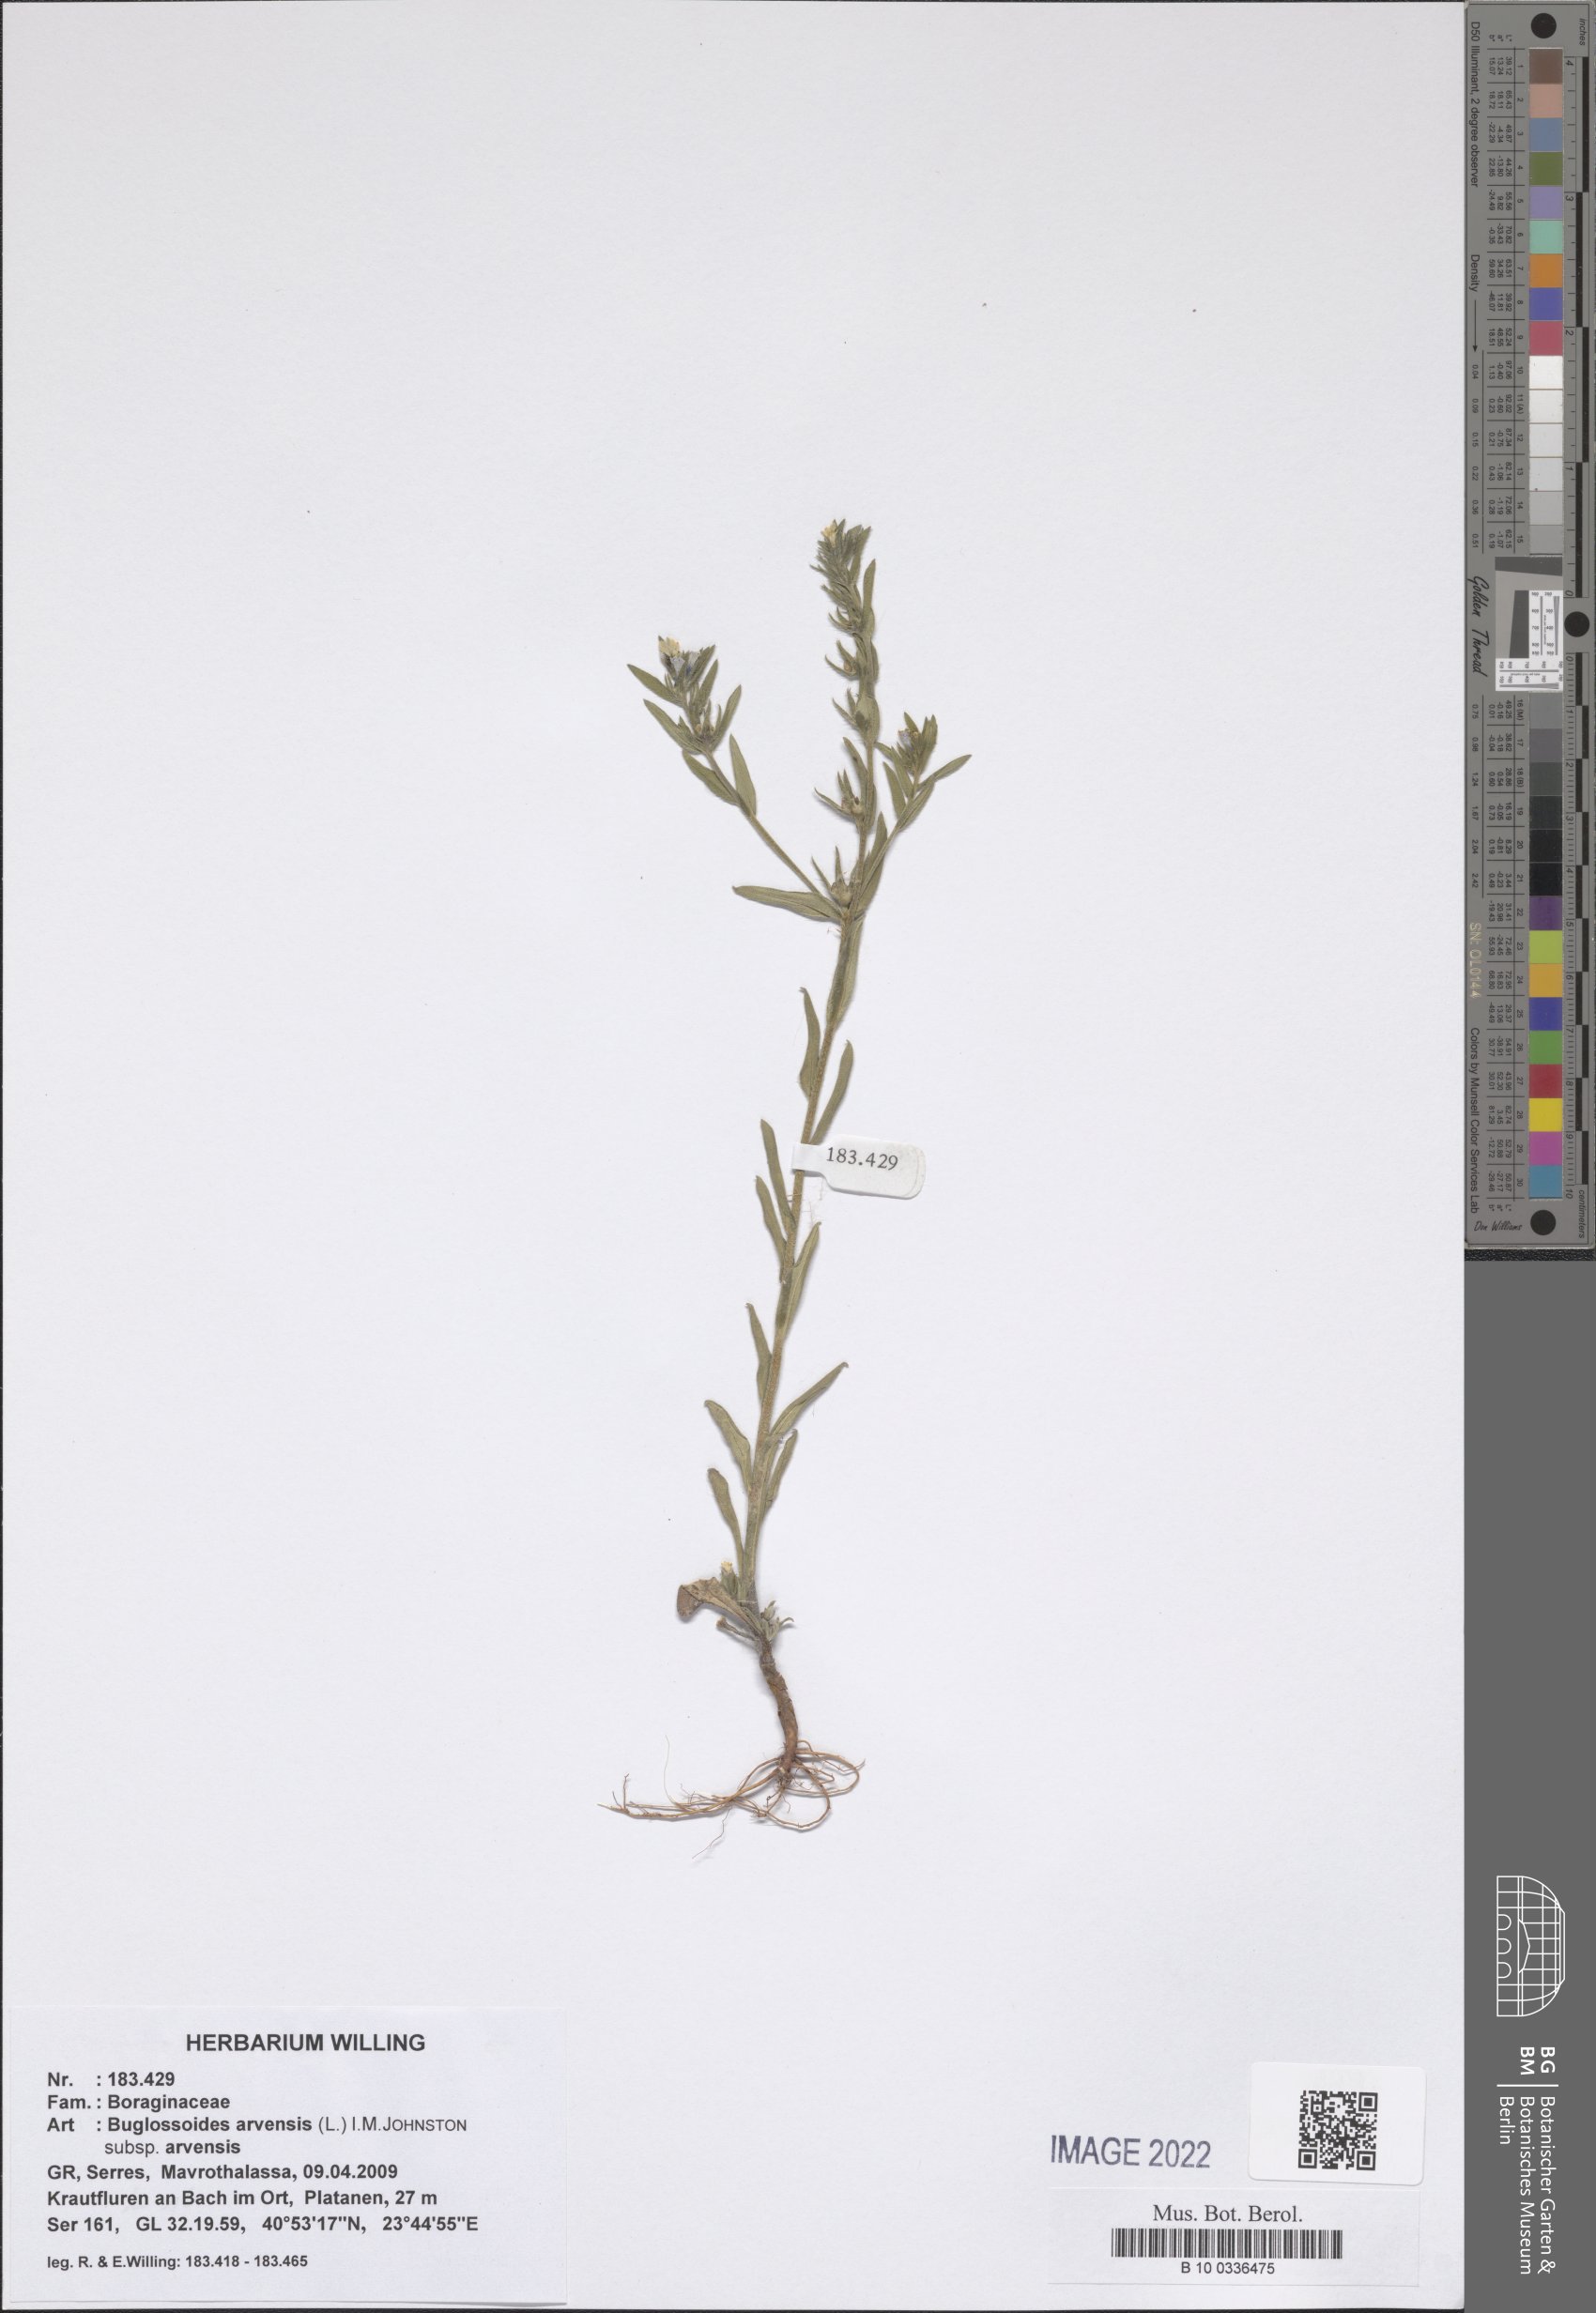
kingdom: Plantae
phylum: Tracheophyta
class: Magnoliopsida
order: Boraginales
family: Boraginaceae
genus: Buglossoides
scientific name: Buglossoides arvensis
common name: Corn gromwell
